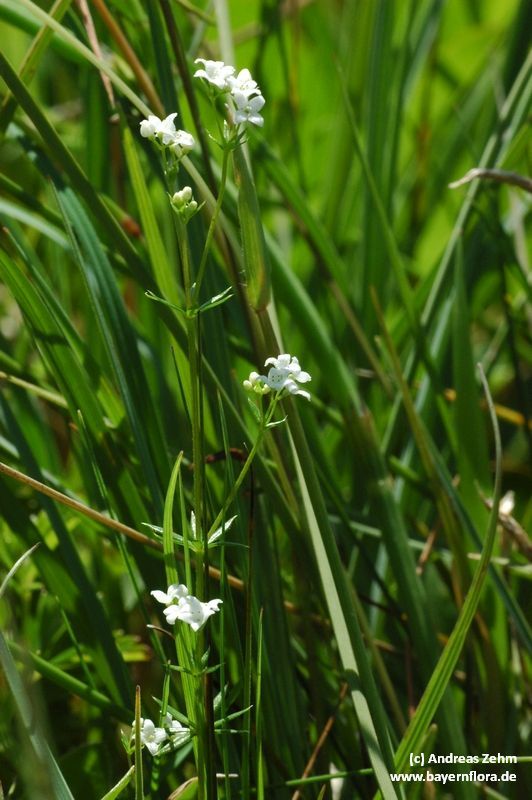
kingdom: Plantae
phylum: Tracheophyta
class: Magnoliopsida
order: Gentianales
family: Rubiaceae
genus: Galium
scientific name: Galium uliginosum
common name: Fen bedstraw
